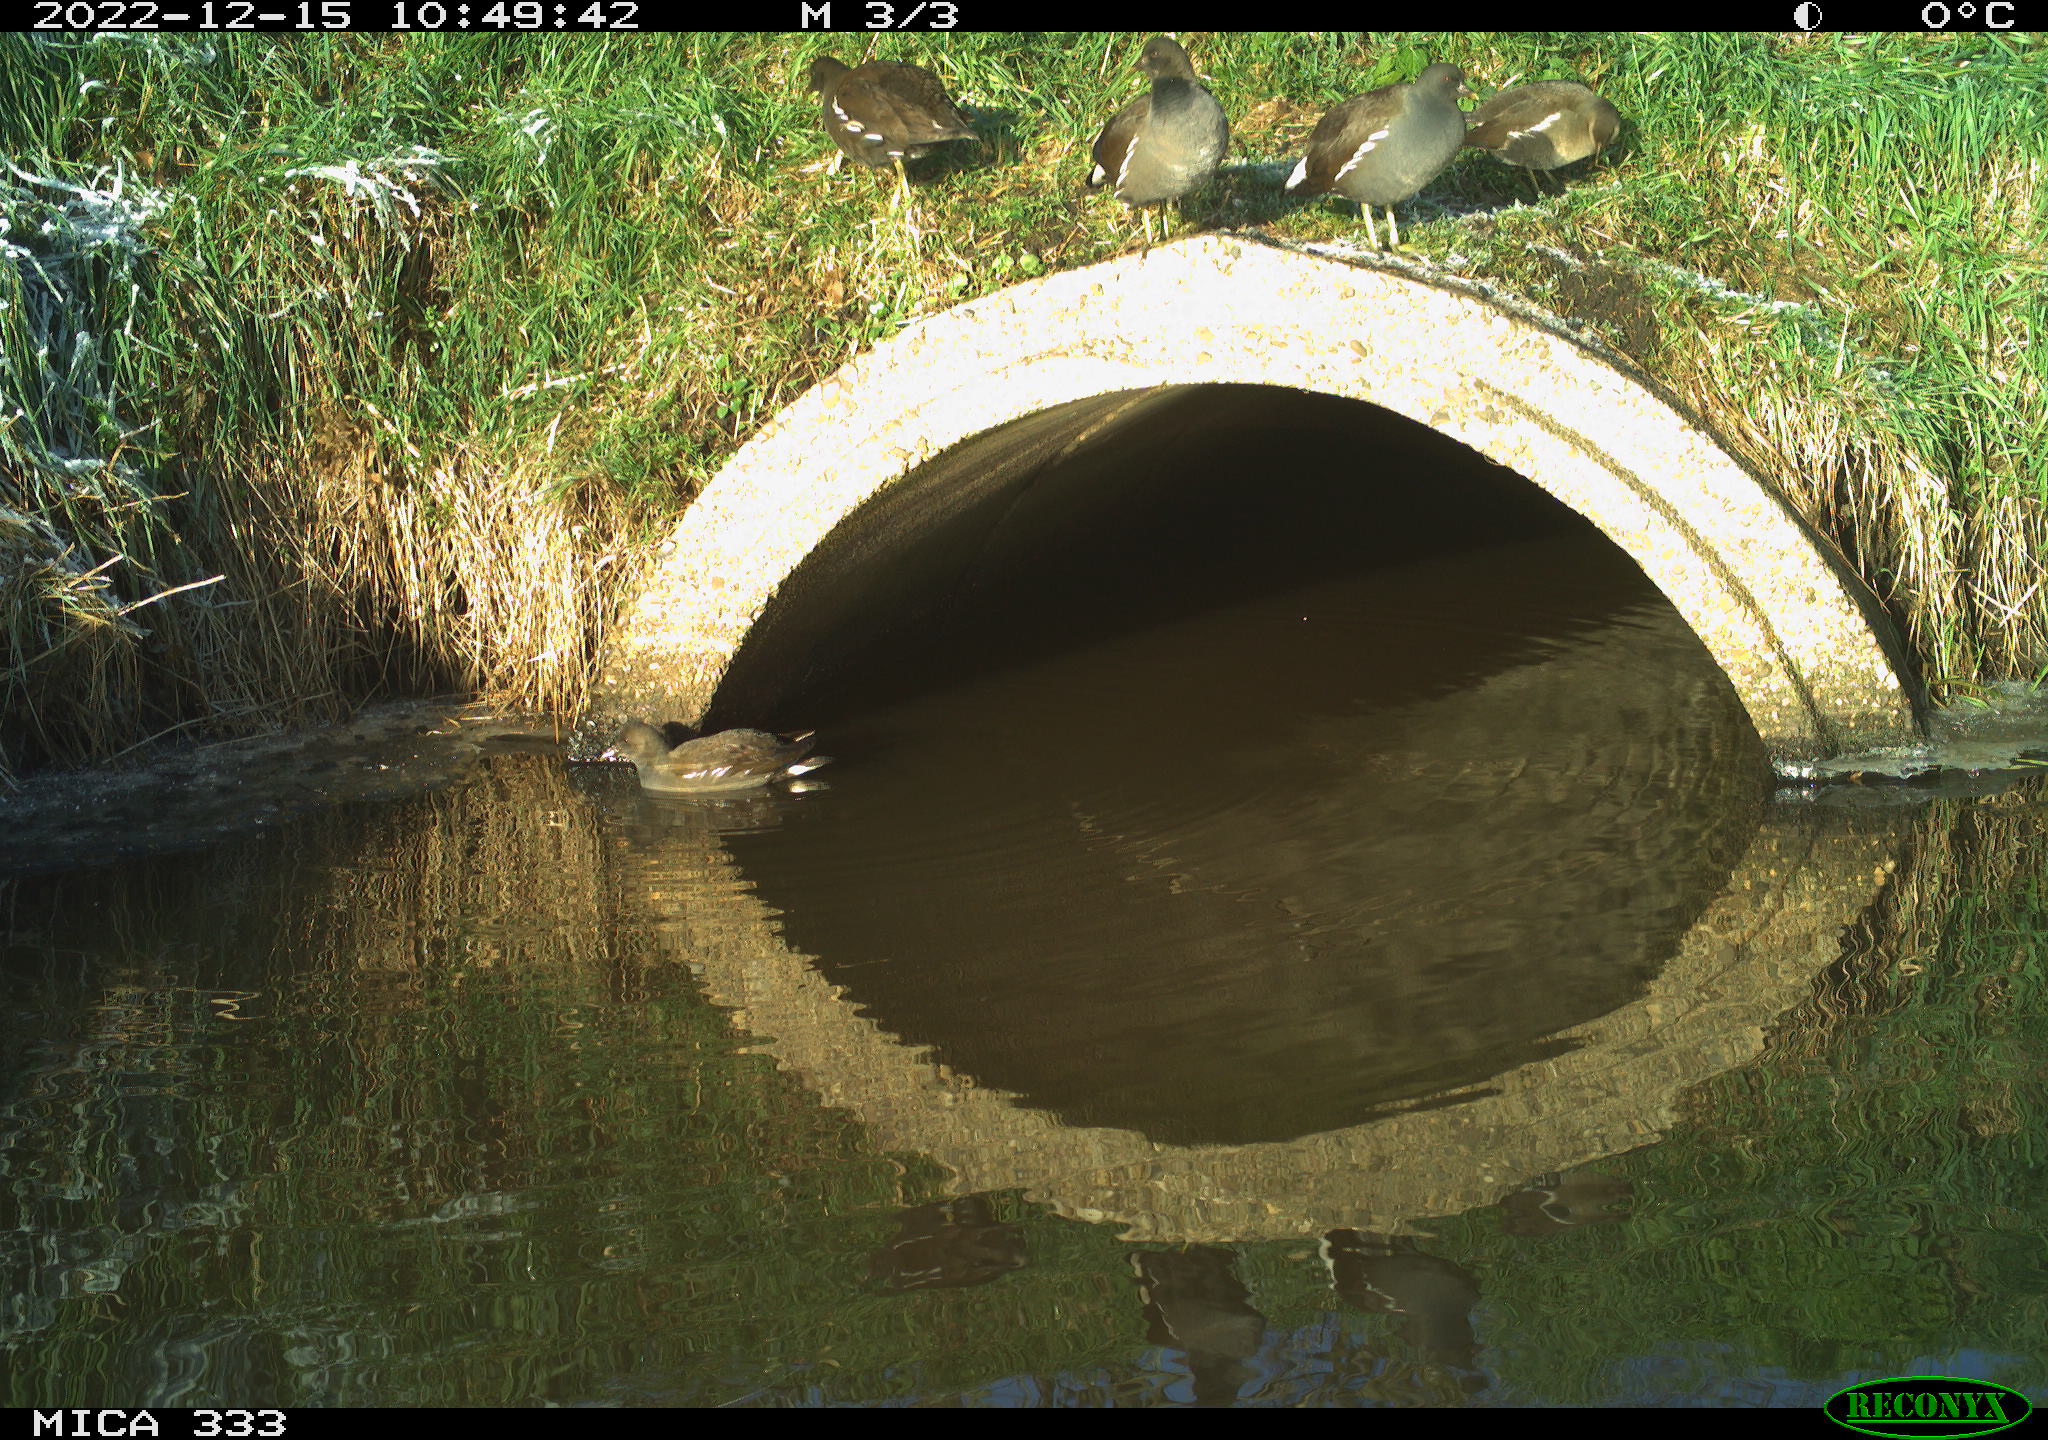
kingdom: Animalia
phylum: Chordata
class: Aves
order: Anseriformes
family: Anatidae
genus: Anas
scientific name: Anas
